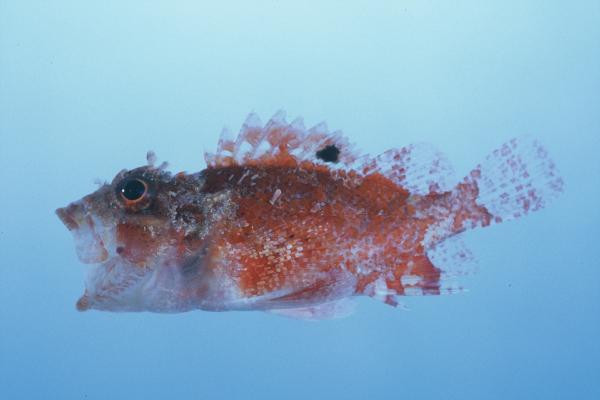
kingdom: Animalia
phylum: Chordata
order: Scorpaeniformes
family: Scorpaenidae
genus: Parascorpaena
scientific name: Parascorpaena mcadamsi
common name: Ocellated scorpionfish
